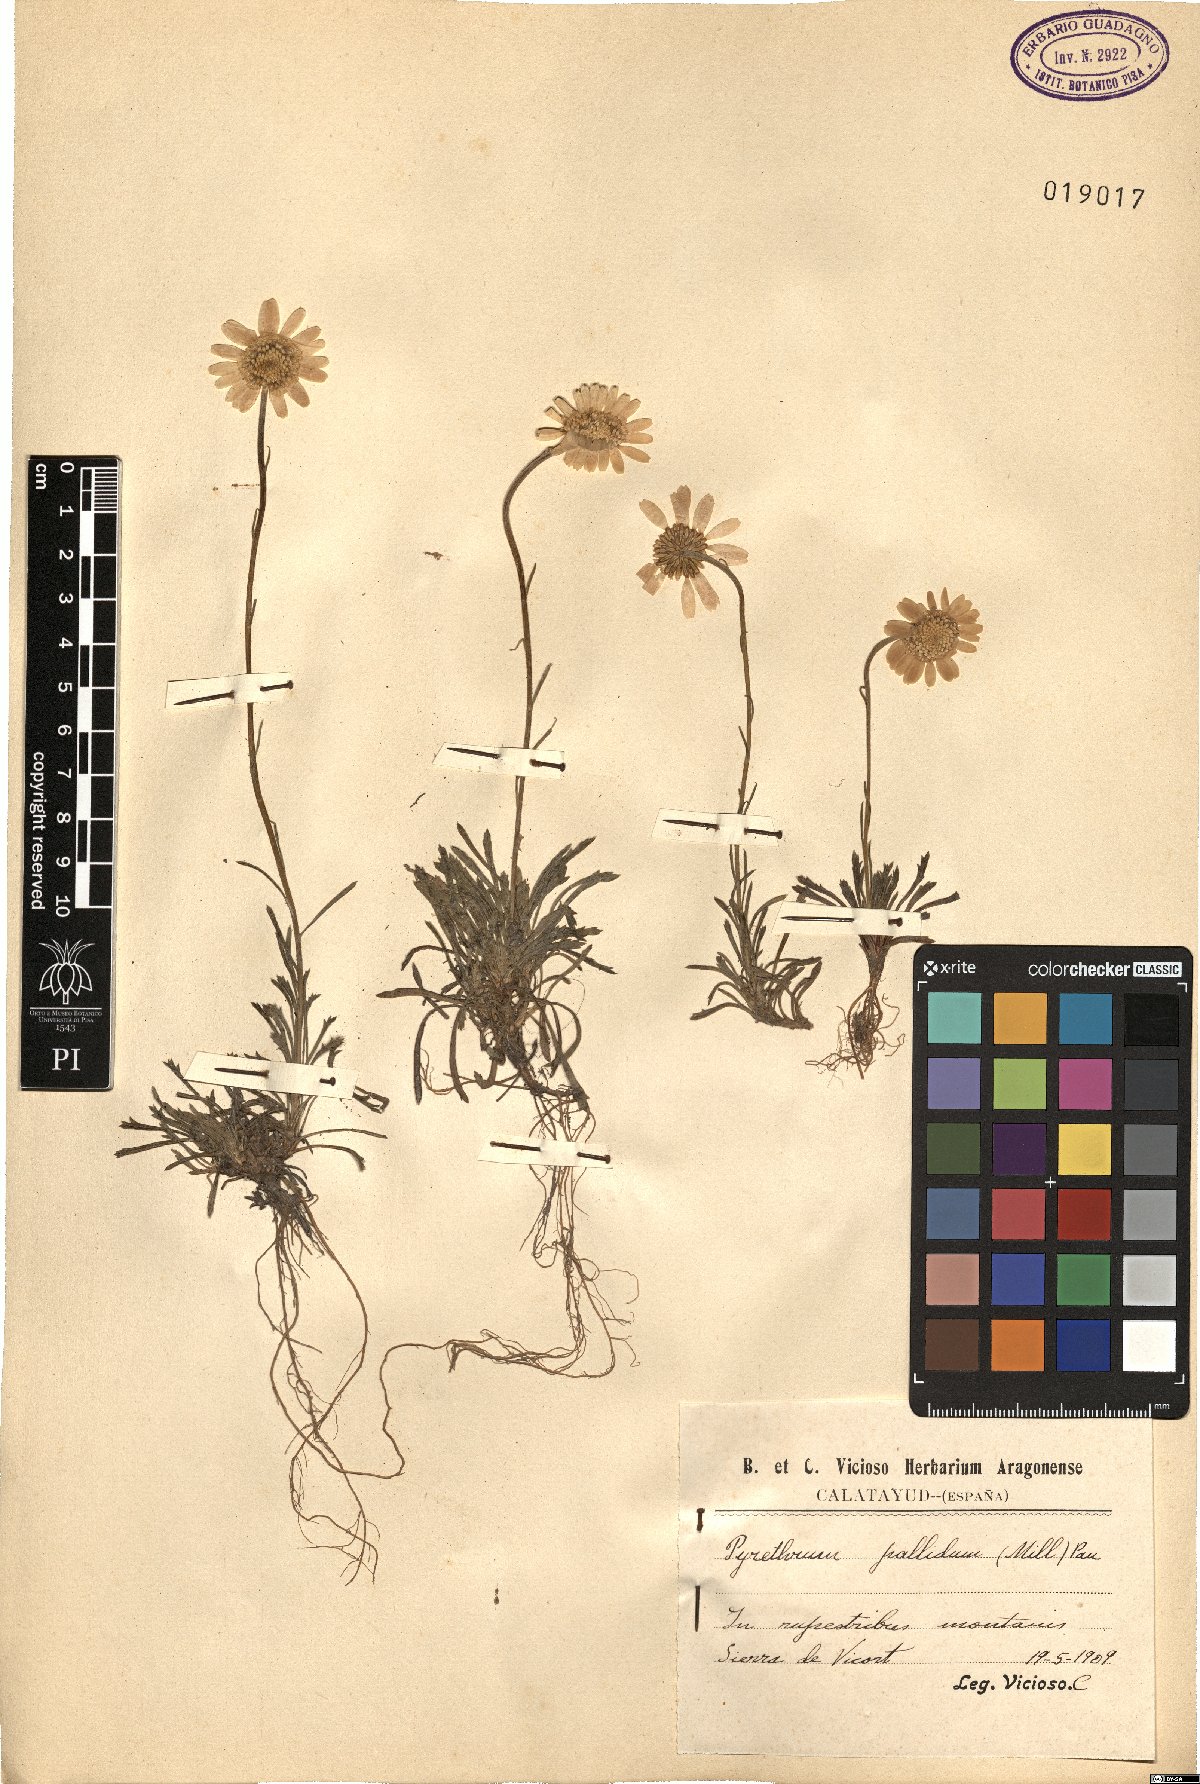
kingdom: Plantae
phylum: Tracheophyta
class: Magnoliopsida
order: Asterales
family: Asteraceae
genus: Leucanthemopsis
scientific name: Leucanthemopsis pallida
